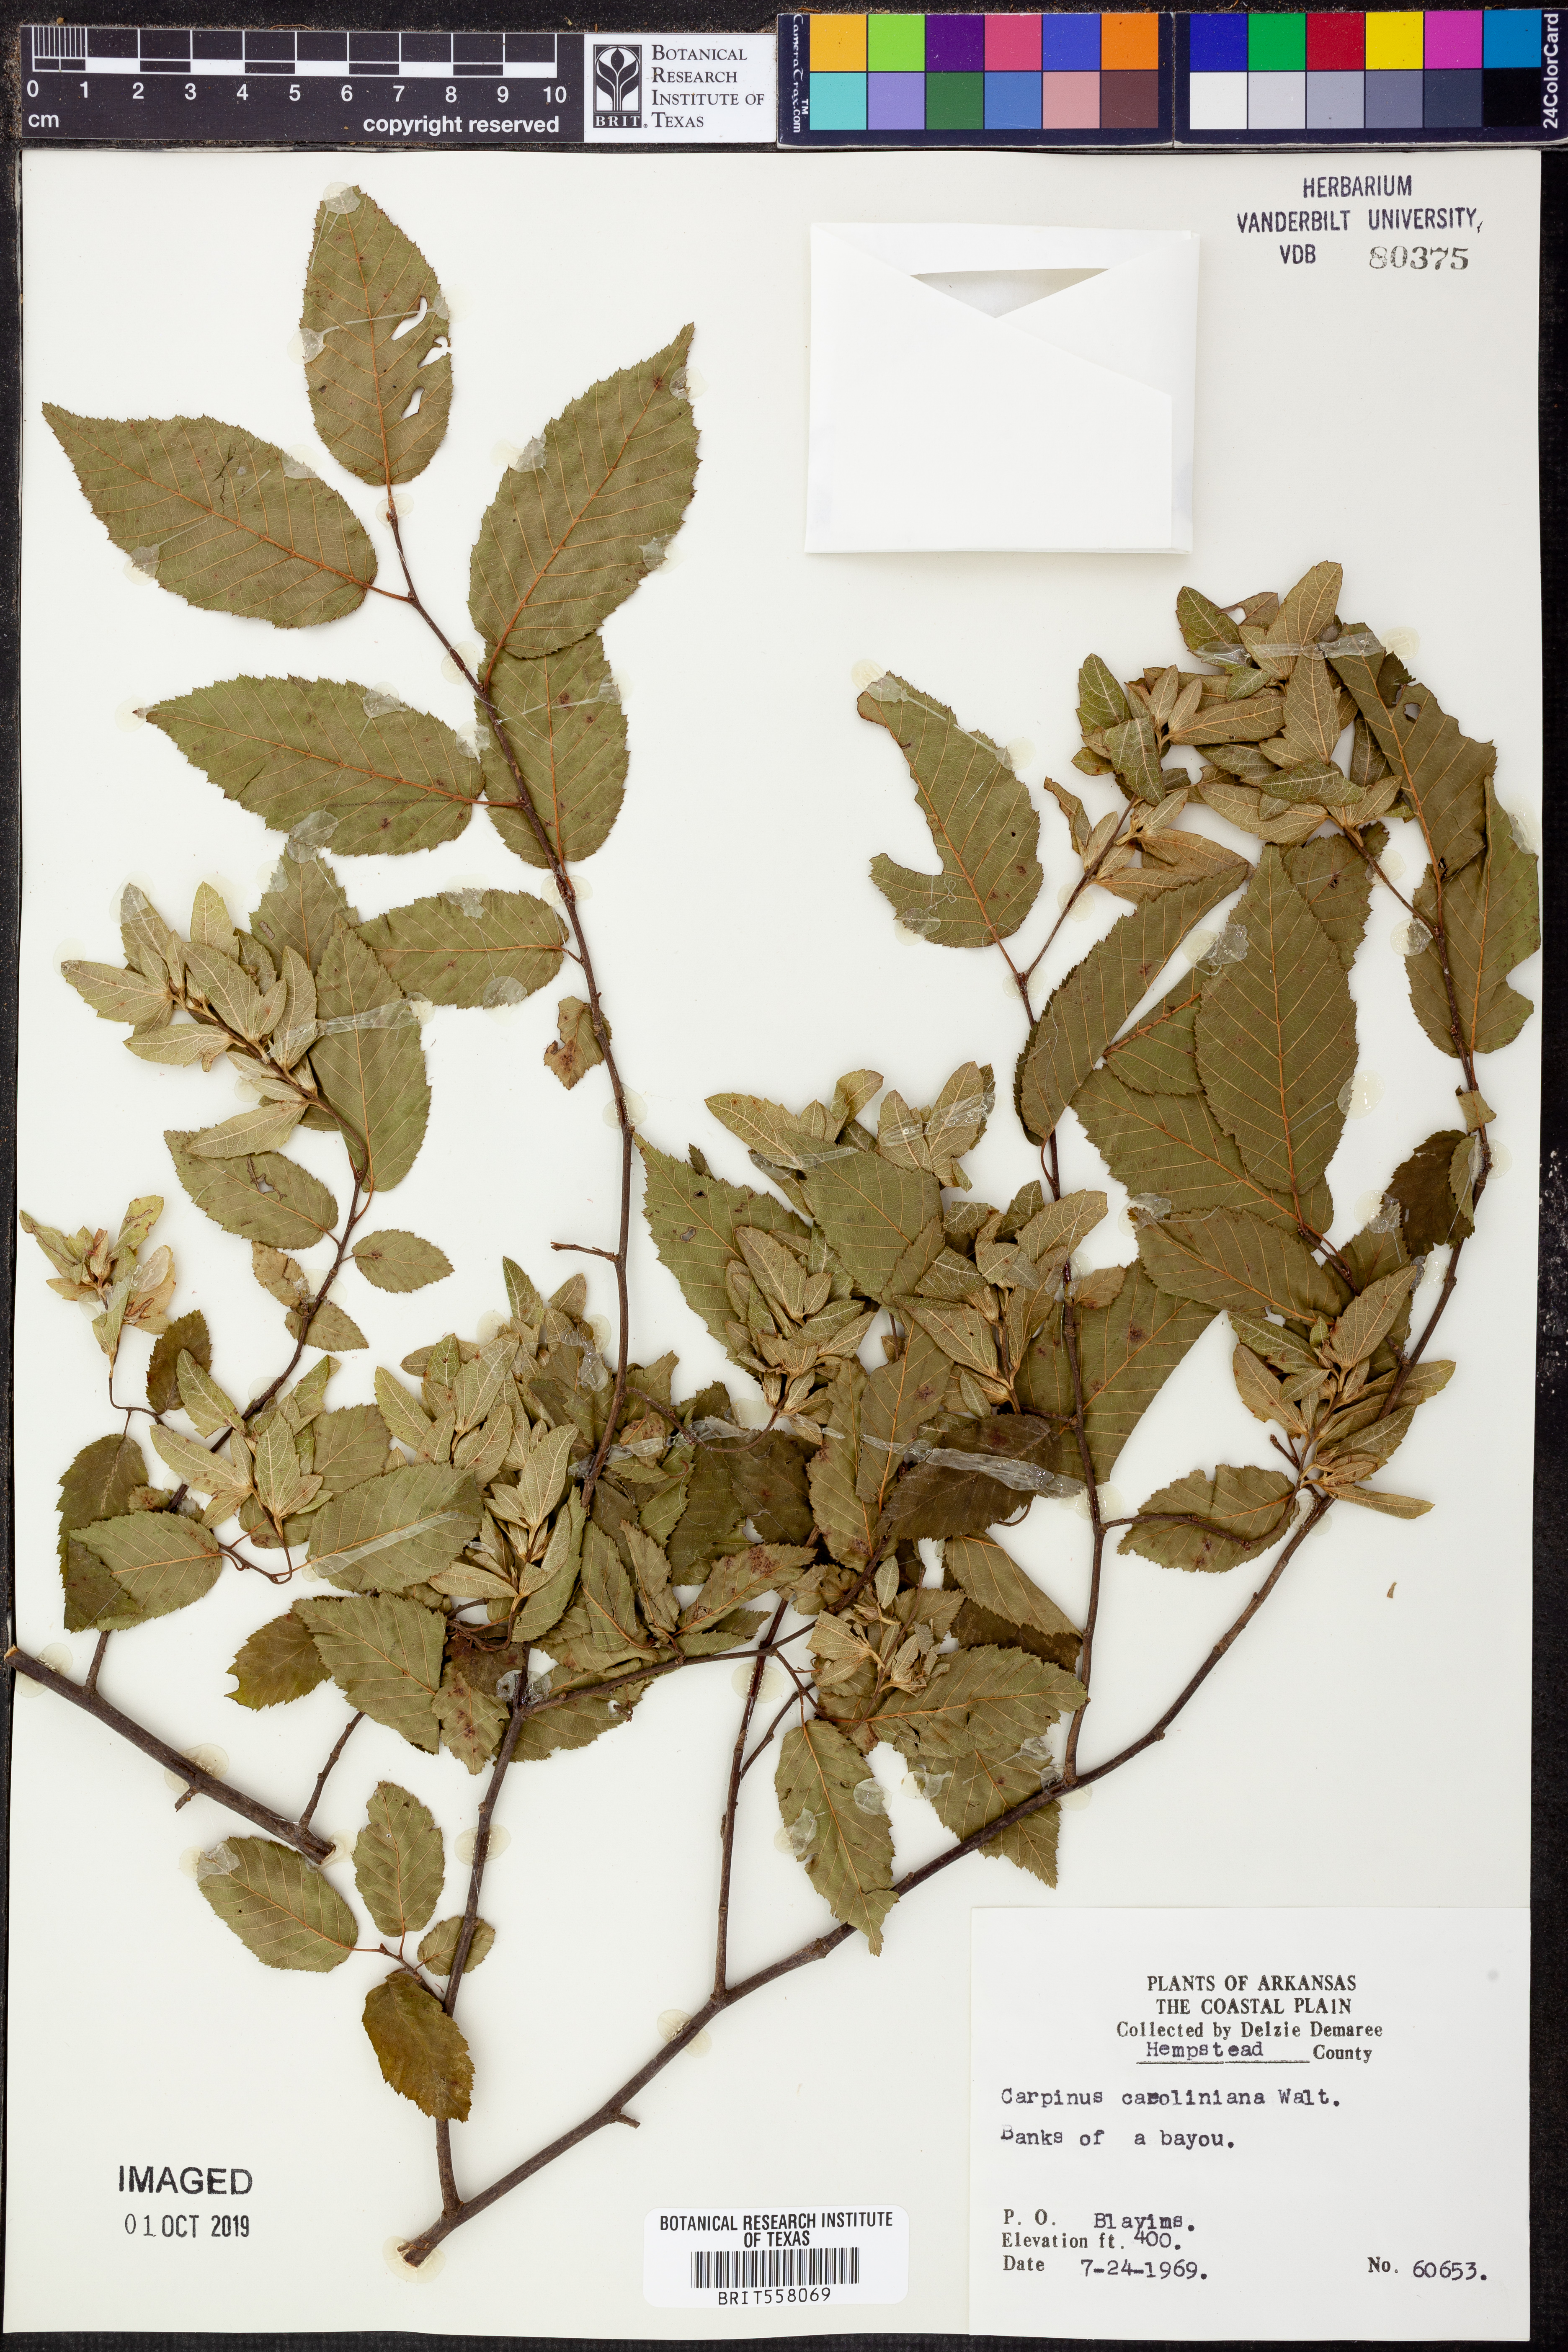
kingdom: Plantae
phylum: Tracheophyta
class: Magnoliopsida
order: Fagales
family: Betulaceae
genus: Carpinus
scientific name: Carpinus caroliniana
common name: American hornbeam
